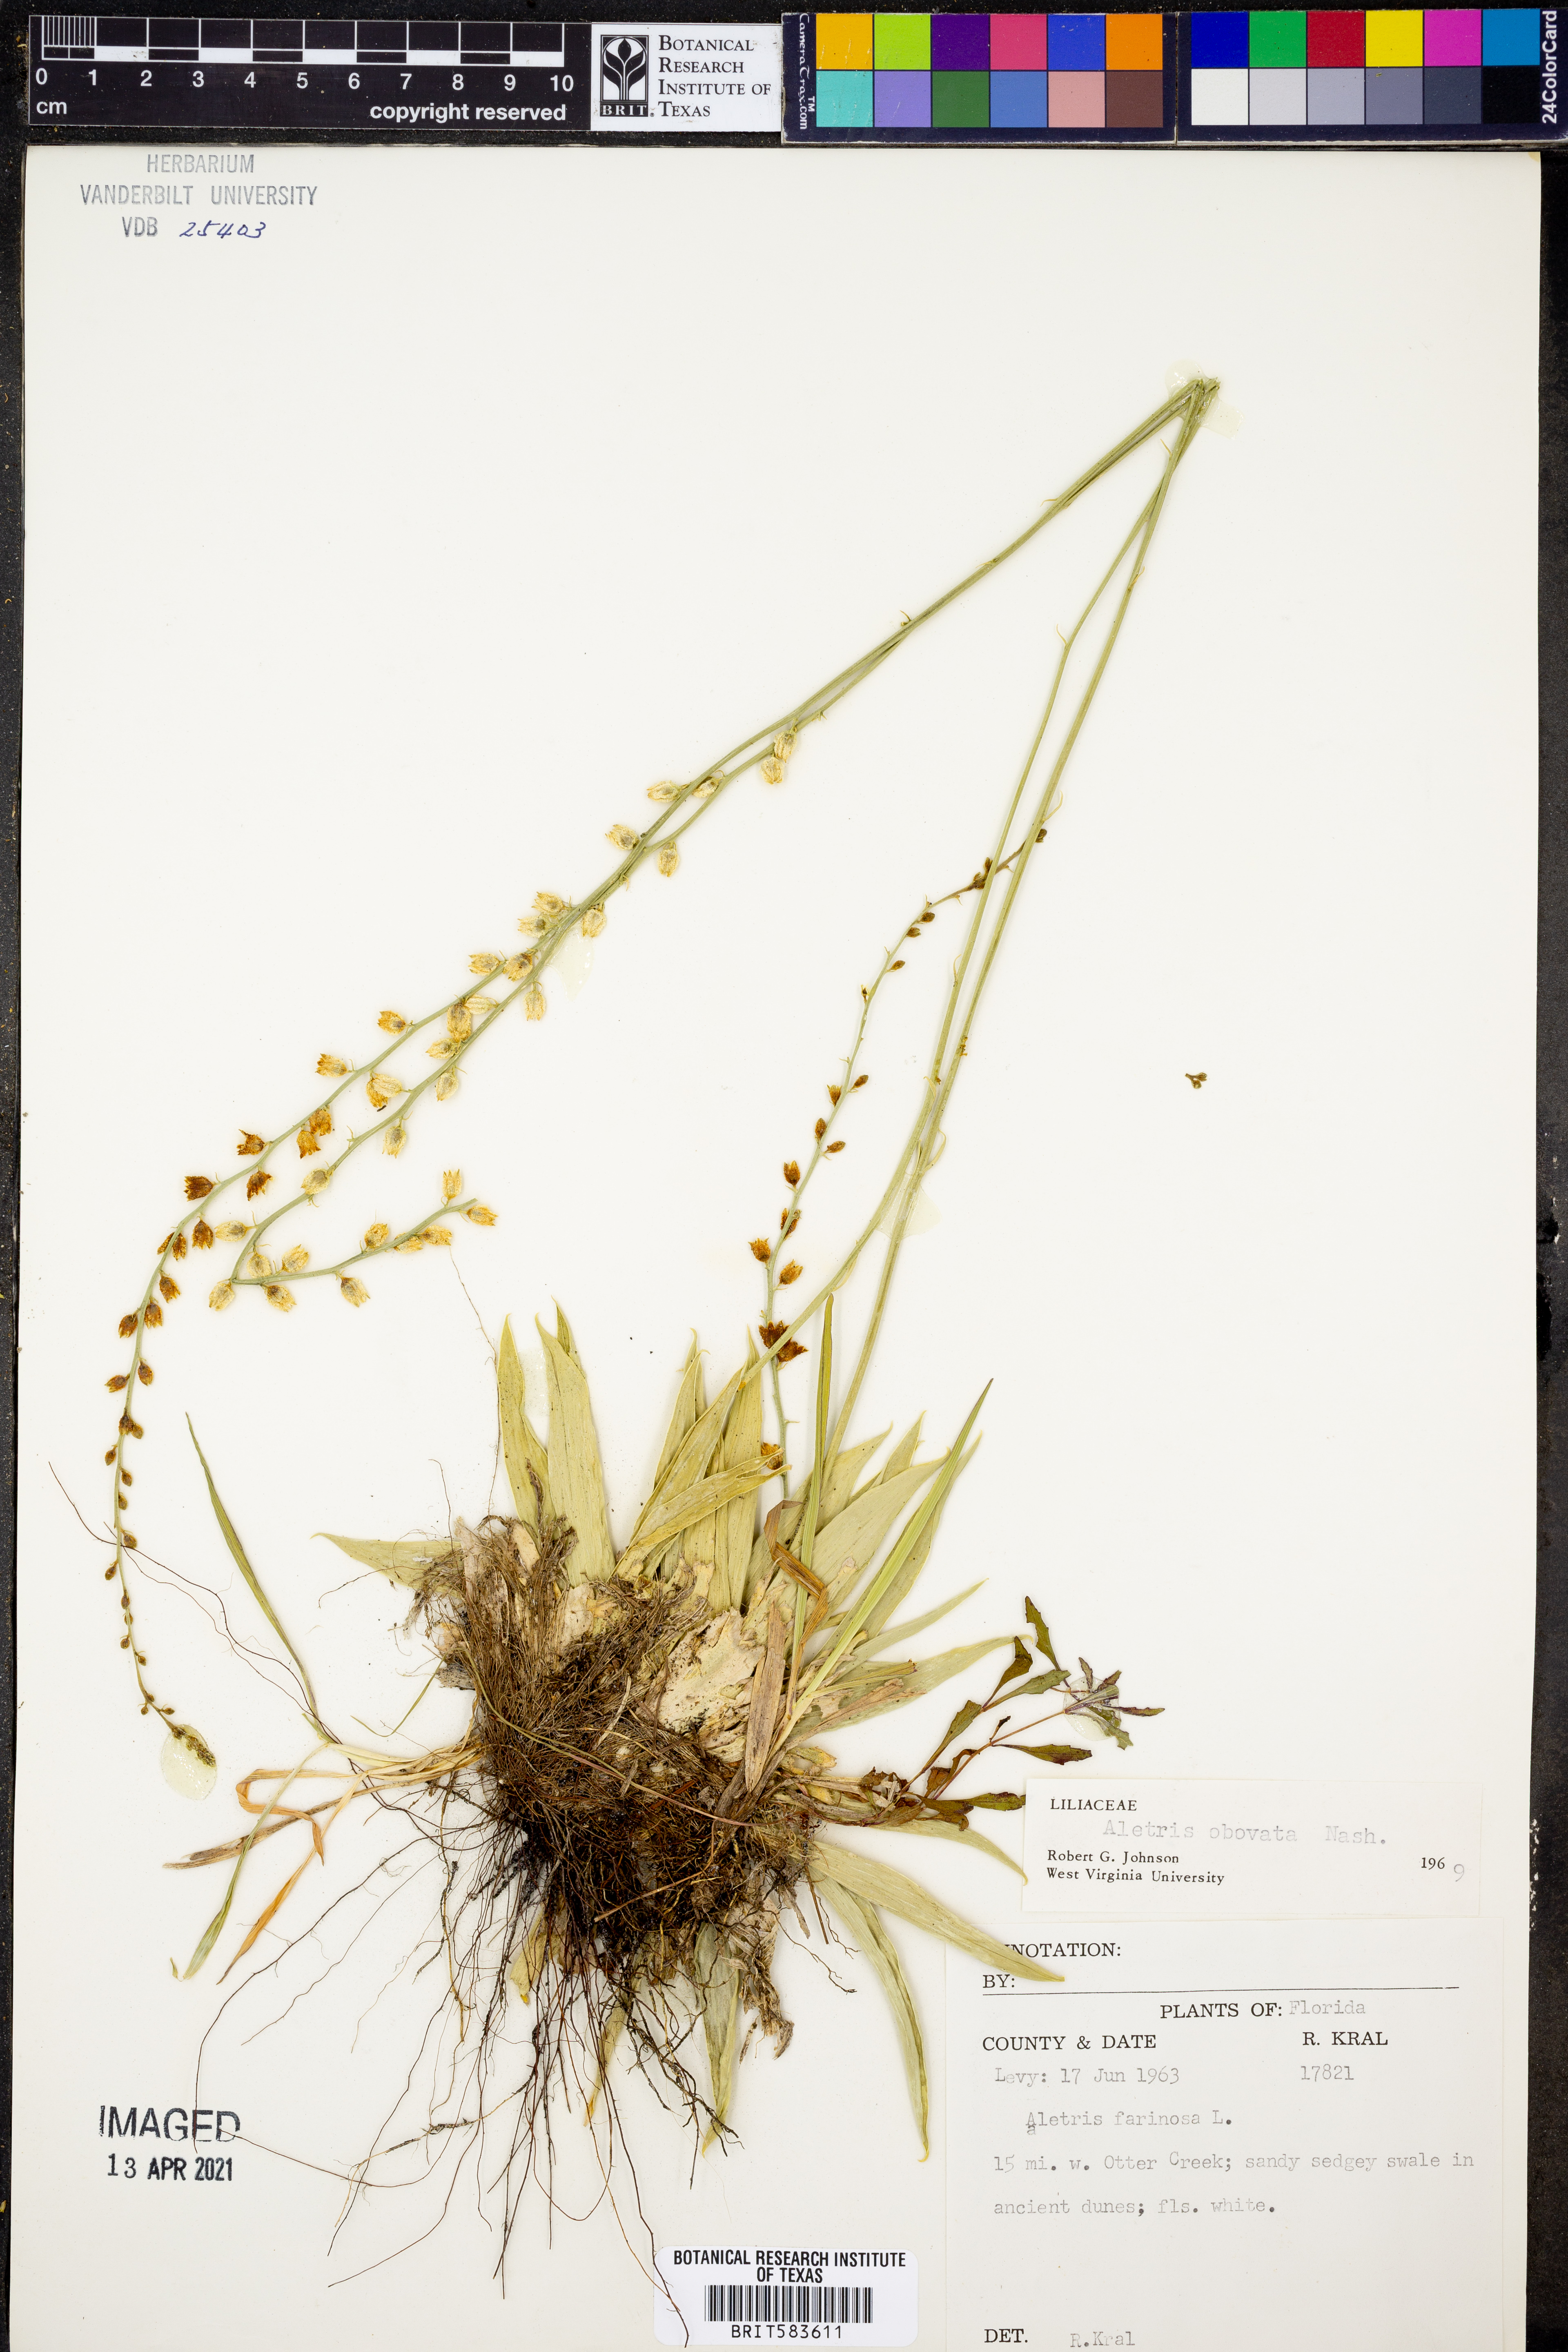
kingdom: Plantae
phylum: Tracheophyta
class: Liliopsida
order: Dioscoreales
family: Nartheciaceae
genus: Aletris
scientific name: Aletris obovata
